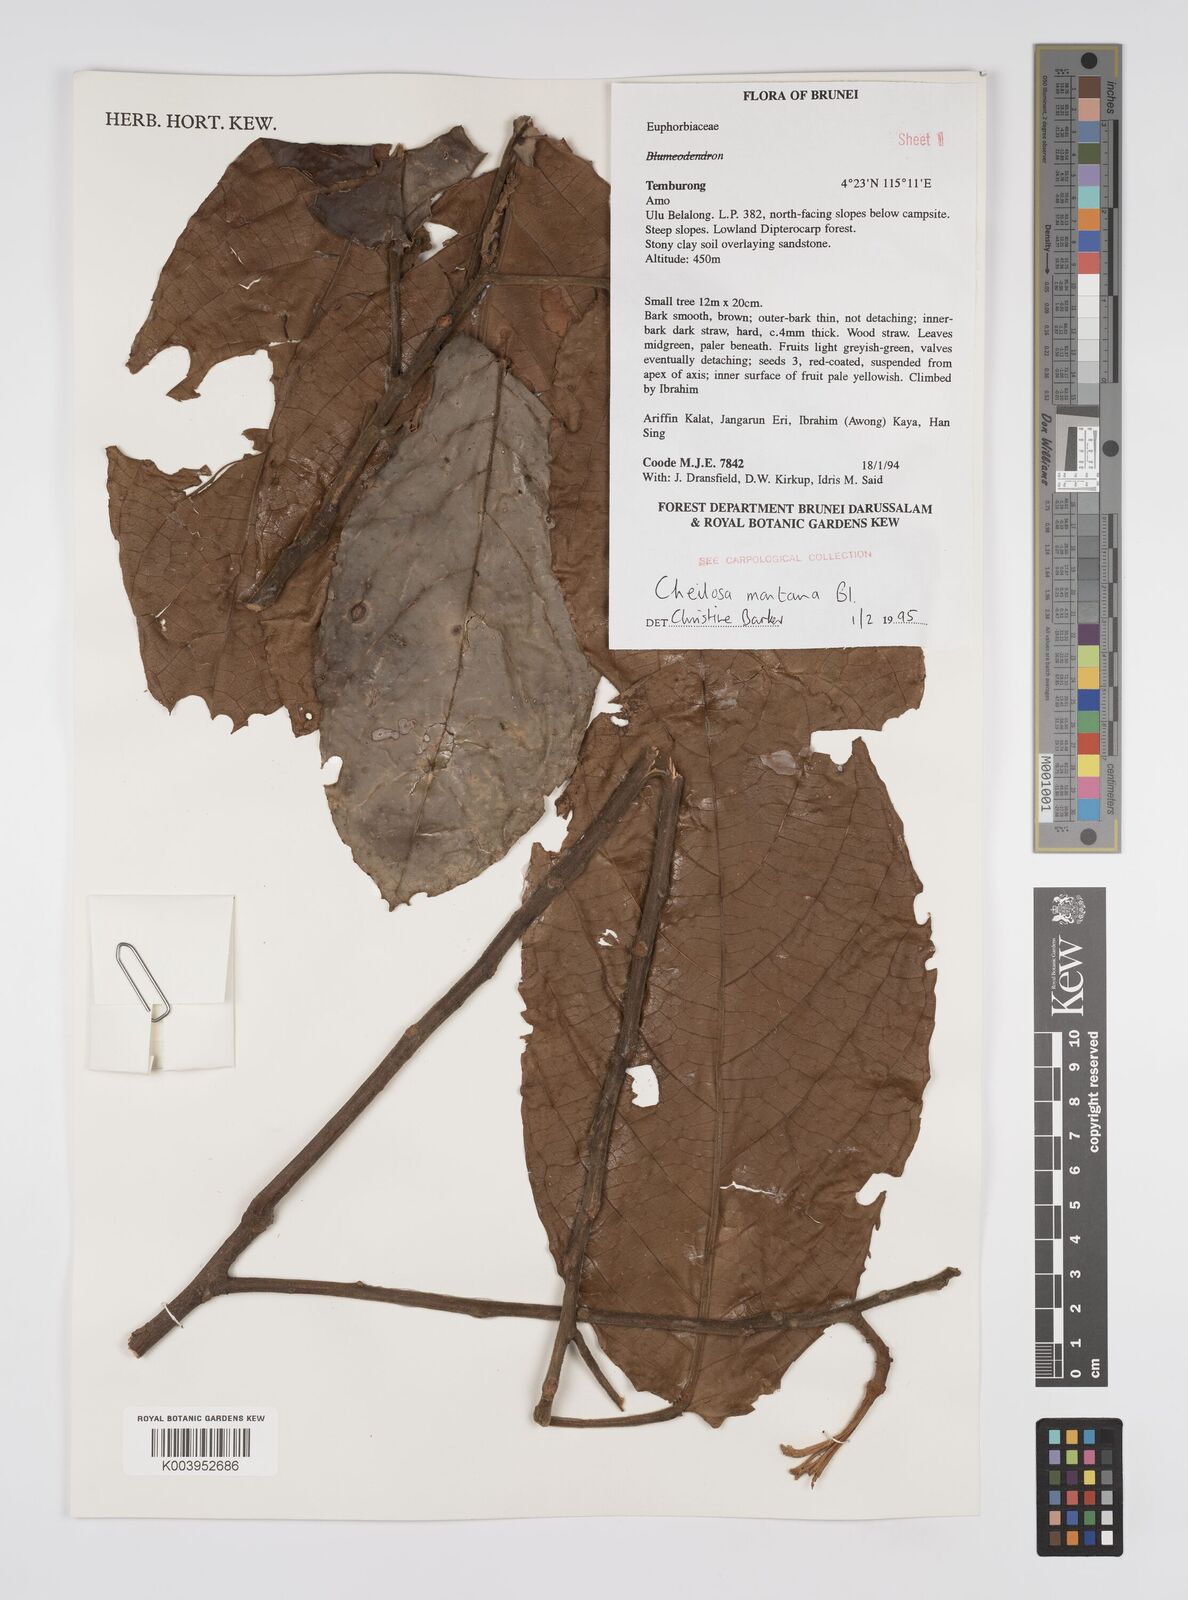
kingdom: Plantae
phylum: Tracheophyta
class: Magnoliopsida
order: Malpighiales
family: Euphorbiaceae
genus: Cheilosa
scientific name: Cheilosa montana
